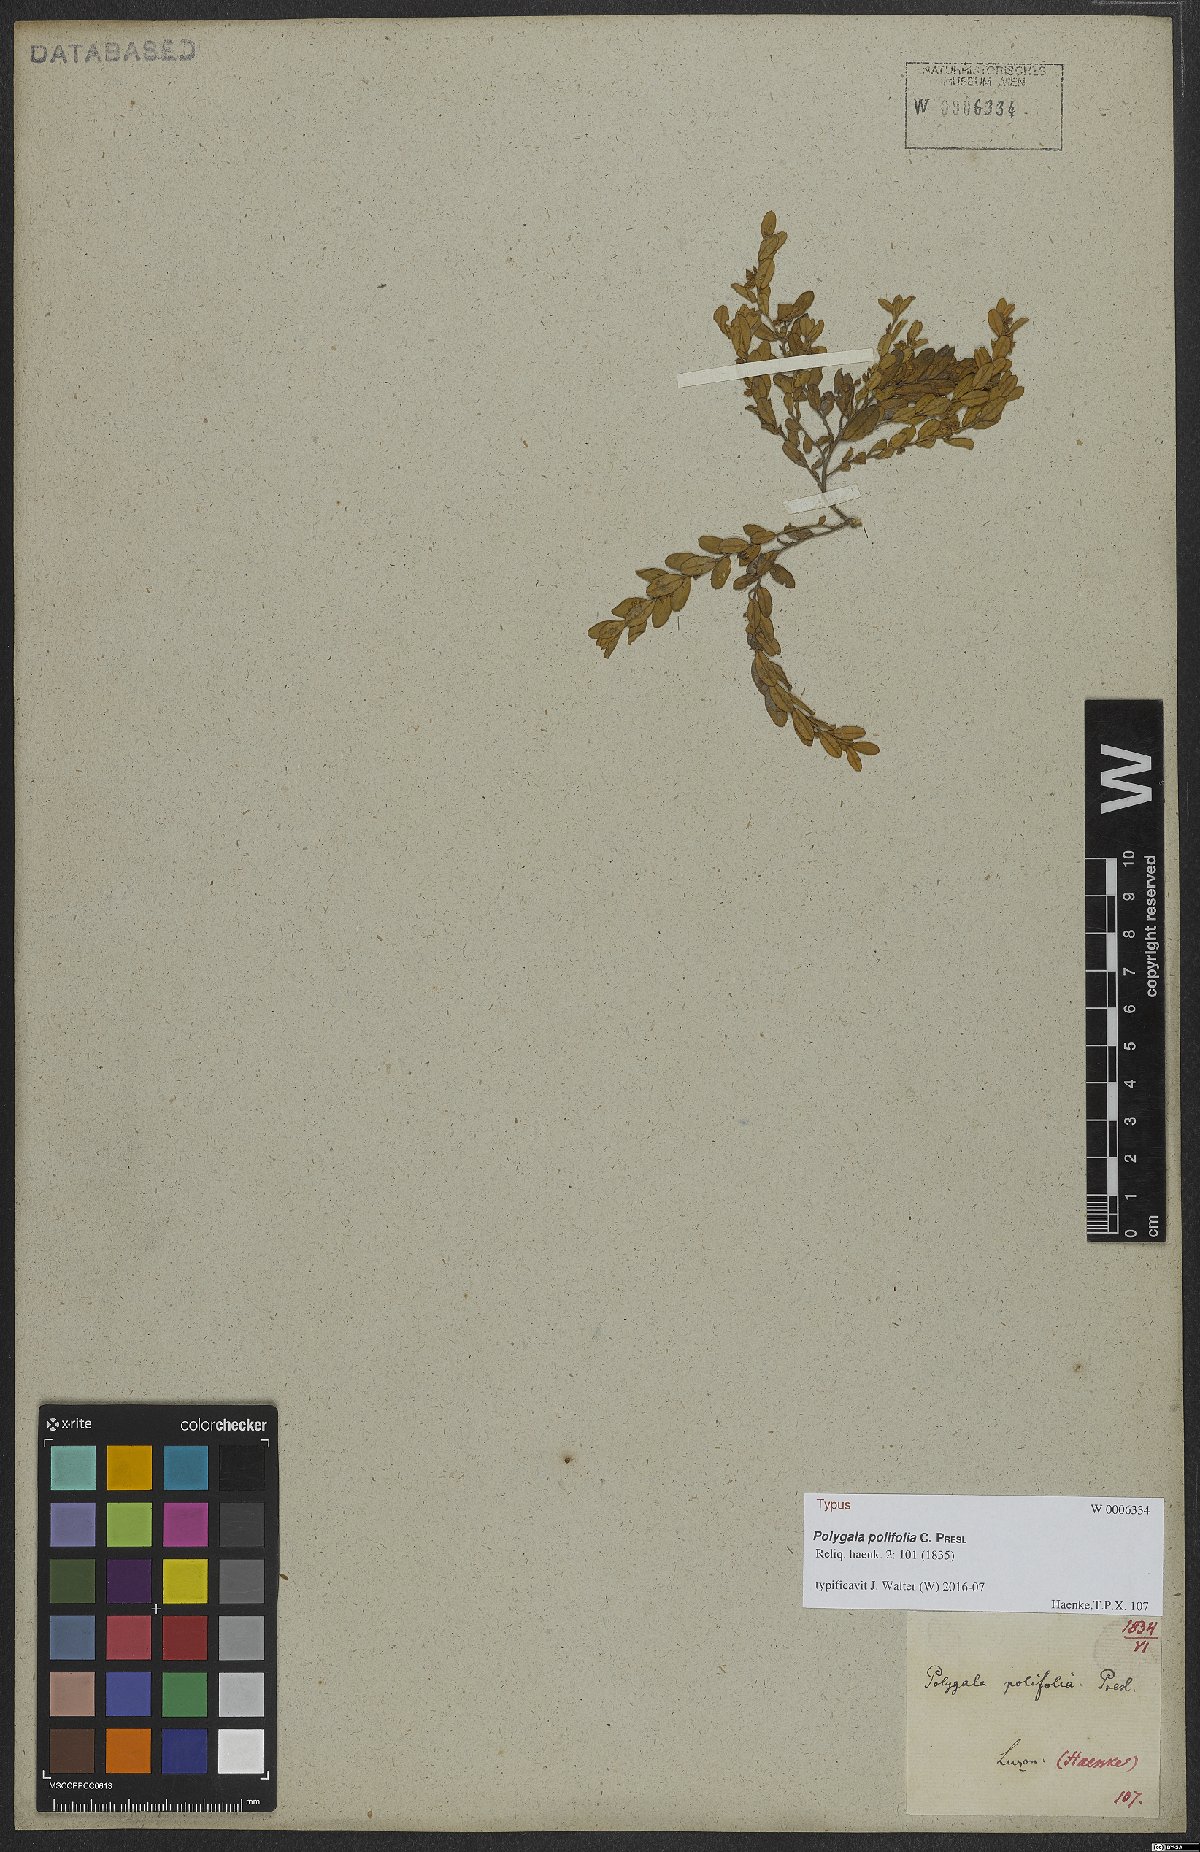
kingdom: Plantae
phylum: Tracheophyta
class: Magnoliopsida
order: Fabales
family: Polygalaceae
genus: Polygala
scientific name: Polygala arvensis
